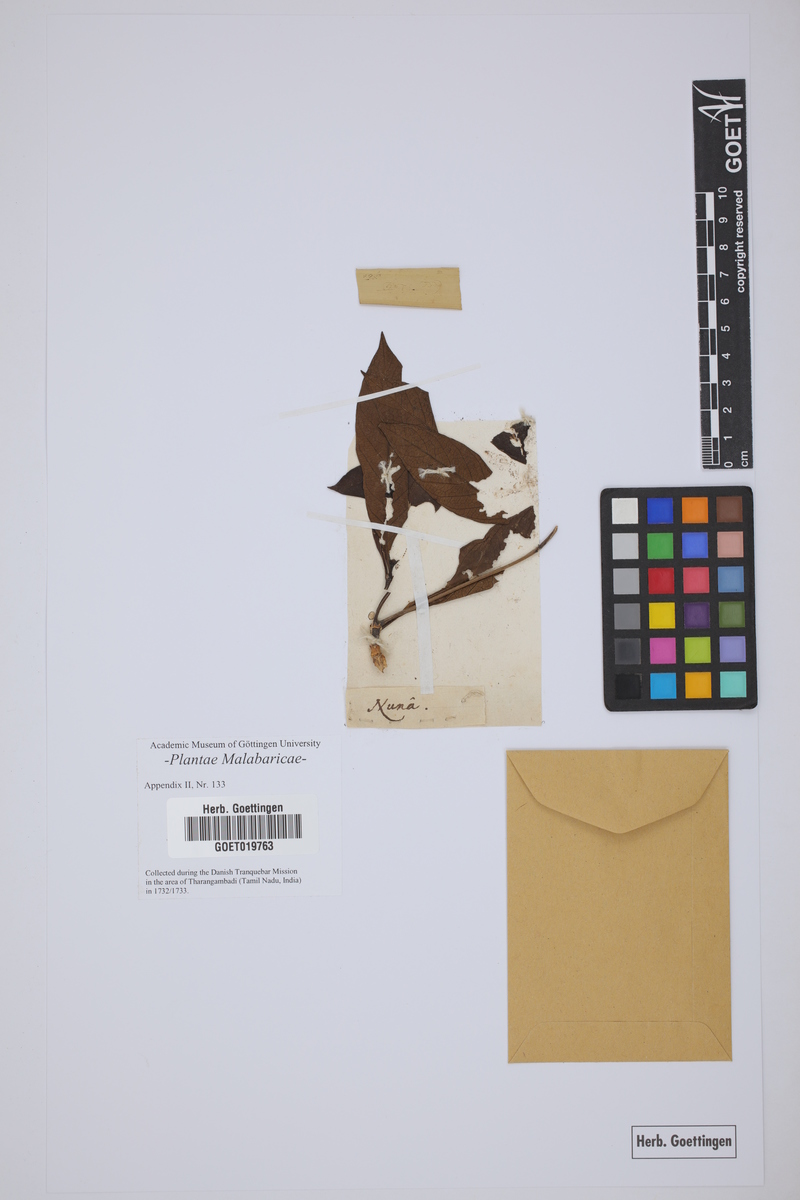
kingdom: Plantae
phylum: Tracheophyta
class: Magnoliopsida
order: Gentianales
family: Rubiaceae
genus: Gynochthodes
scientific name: Gynochthodes umbellata
